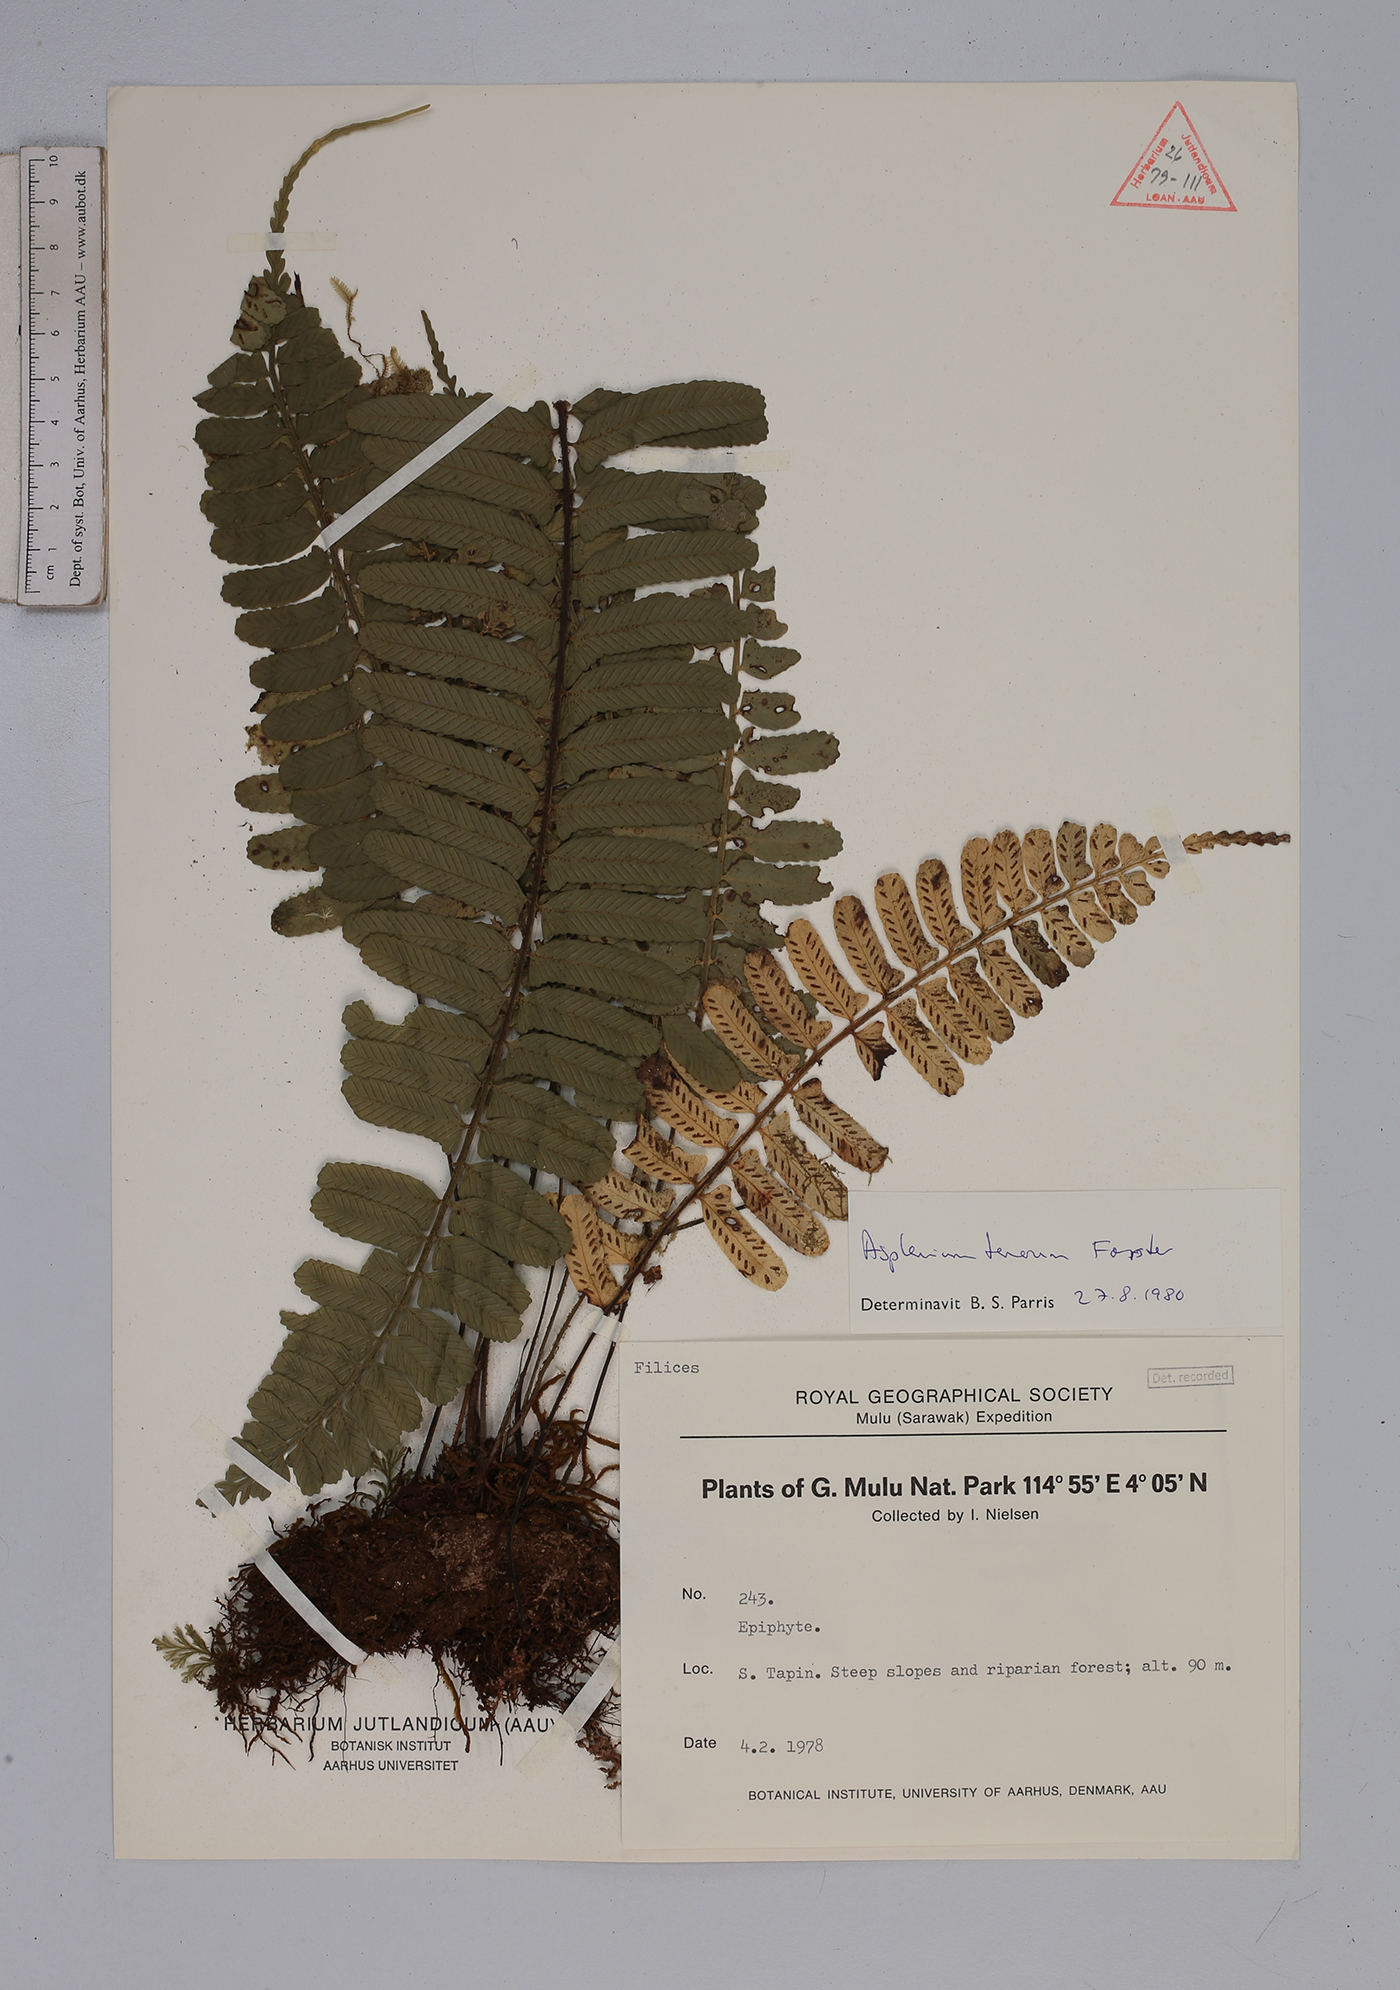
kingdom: Plantae
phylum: Tracheophyta
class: Polypodiopsida
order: Polypodiales
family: Aspleniaceae
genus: Asplenium
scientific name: Asplenium tenerum
